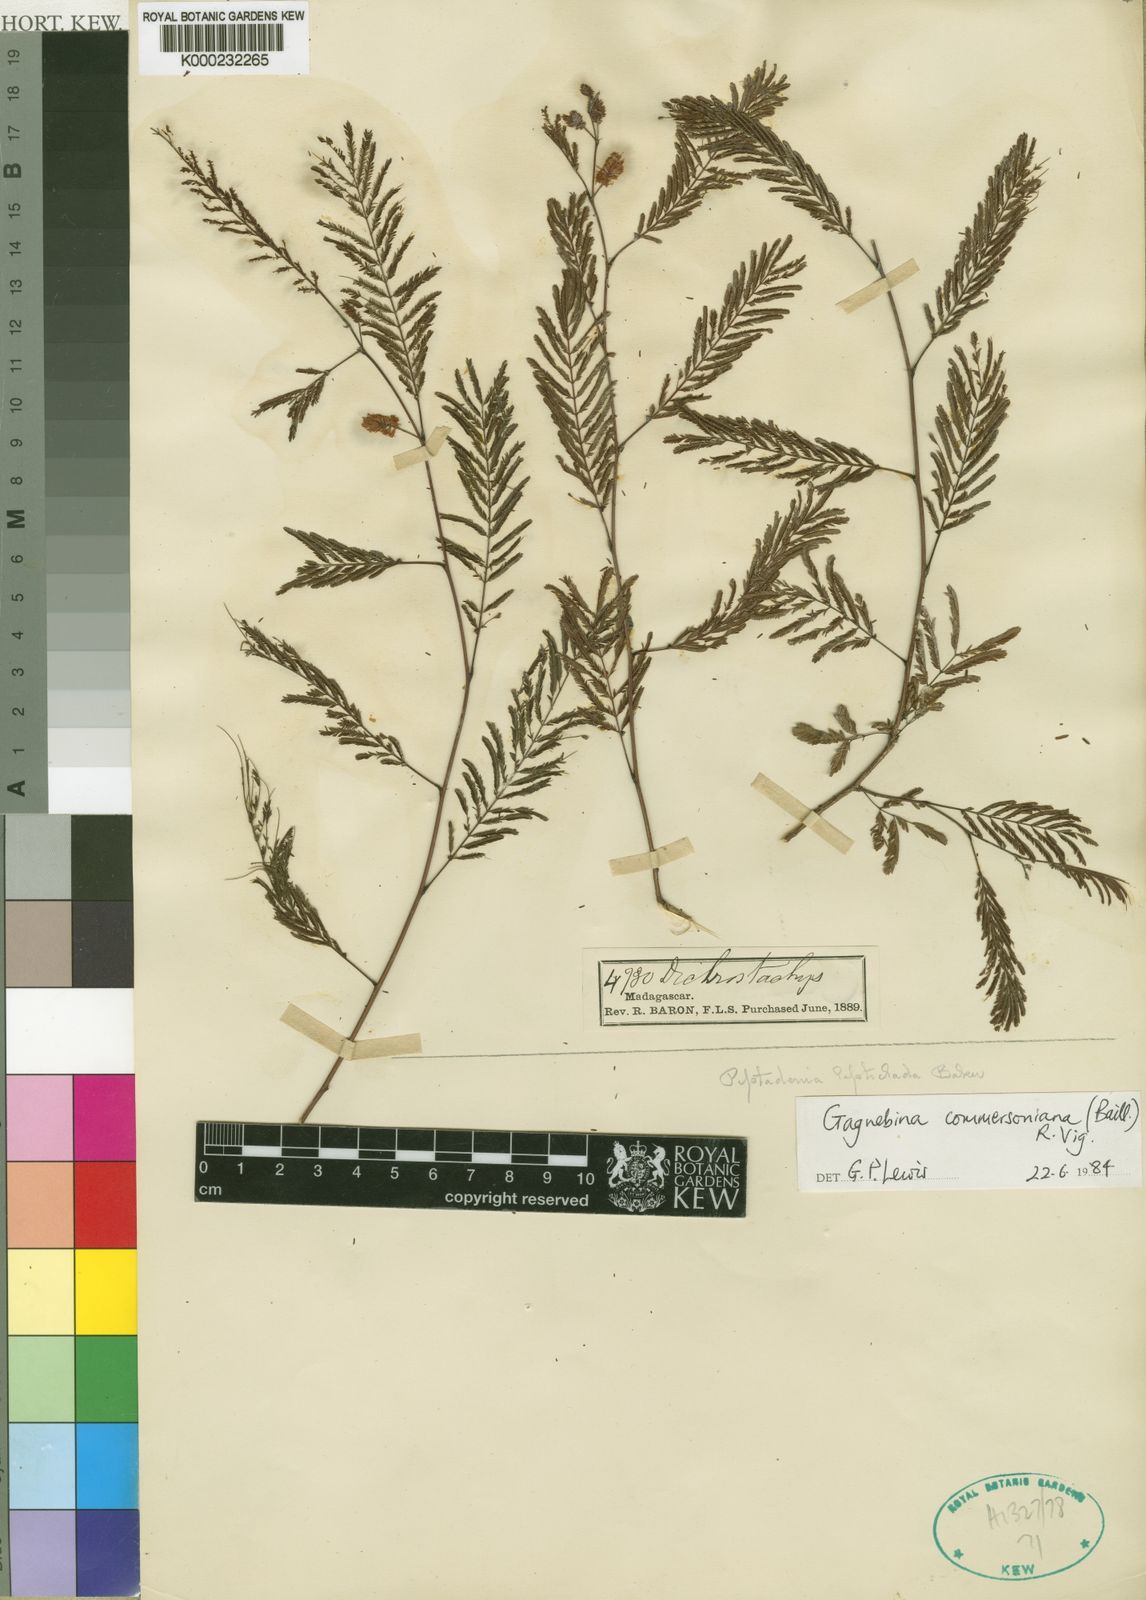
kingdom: Plantae
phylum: Tracheophyta
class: Magnoliopsida
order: Fabales
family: Fabaceae
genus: Gagnebina
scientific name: Gagnebina commersoniana
